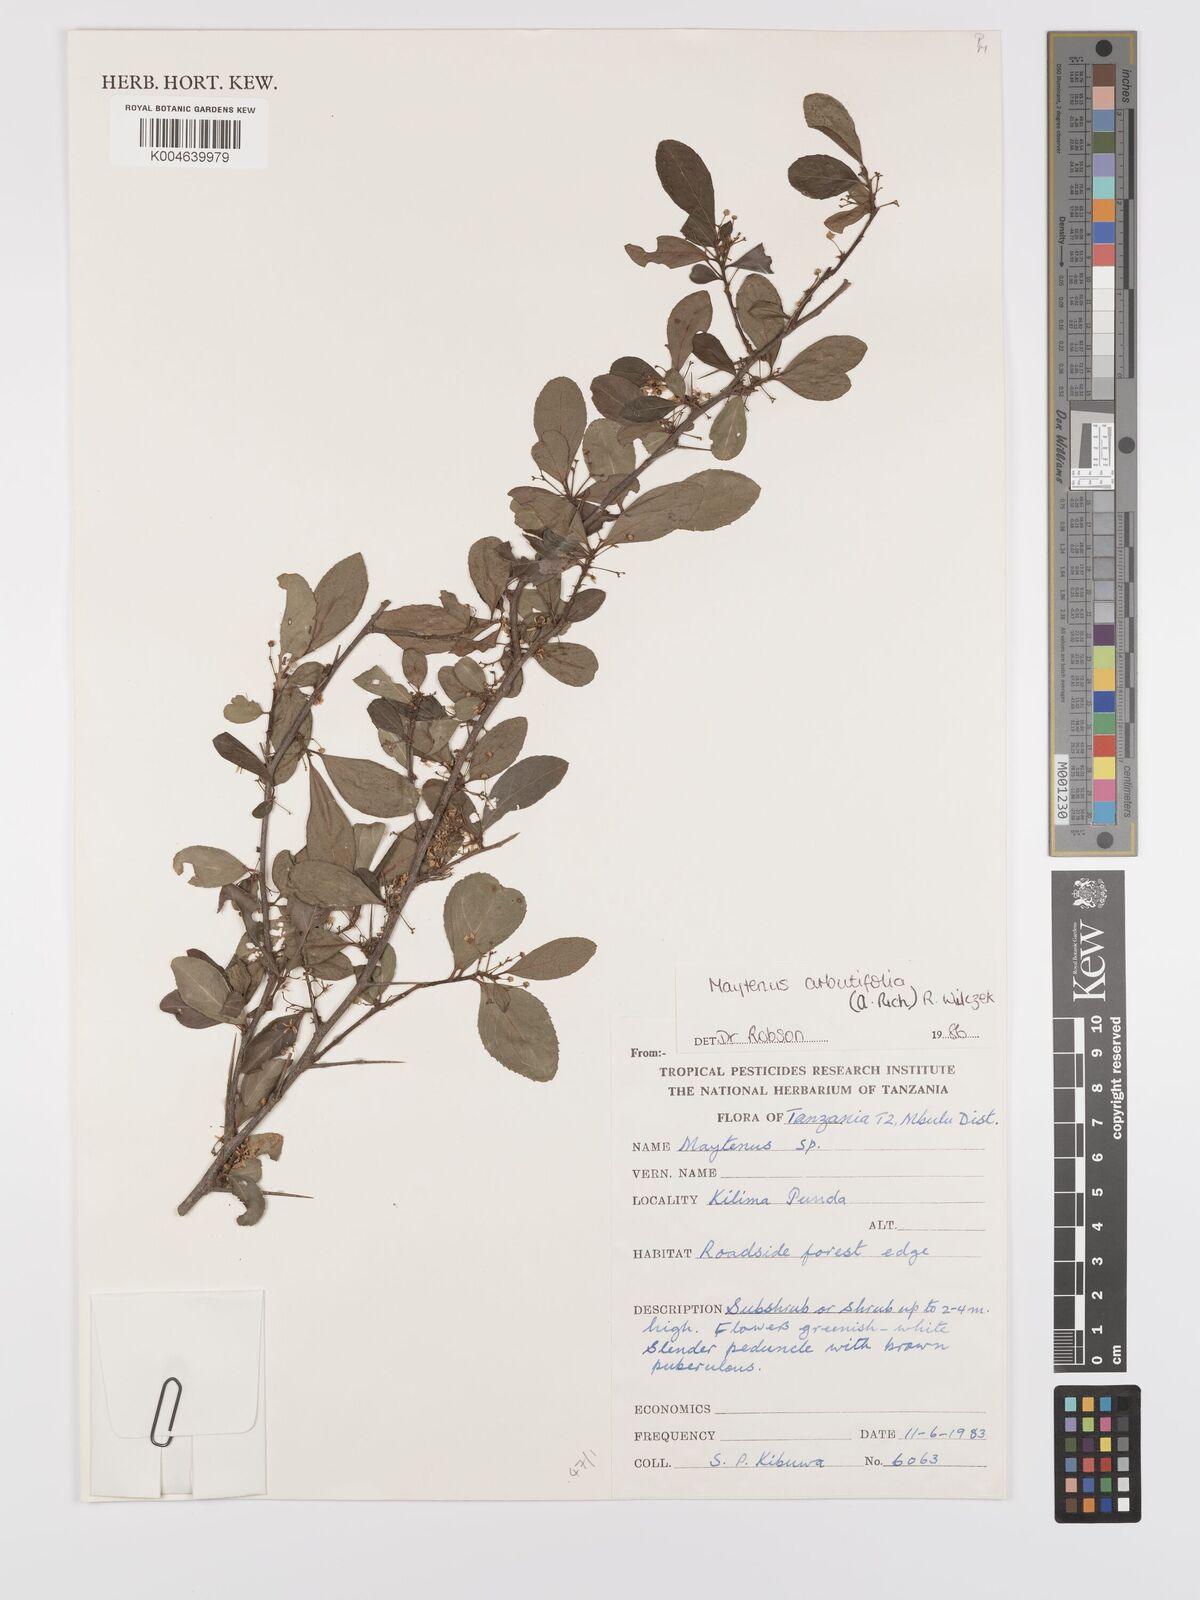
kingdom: Plantae
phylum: Tracheophyta
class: Magnoliopsida
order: Celastrales
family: Celastraceae
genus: Gymnosporia
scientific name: Gymnosporia arbutifolia
